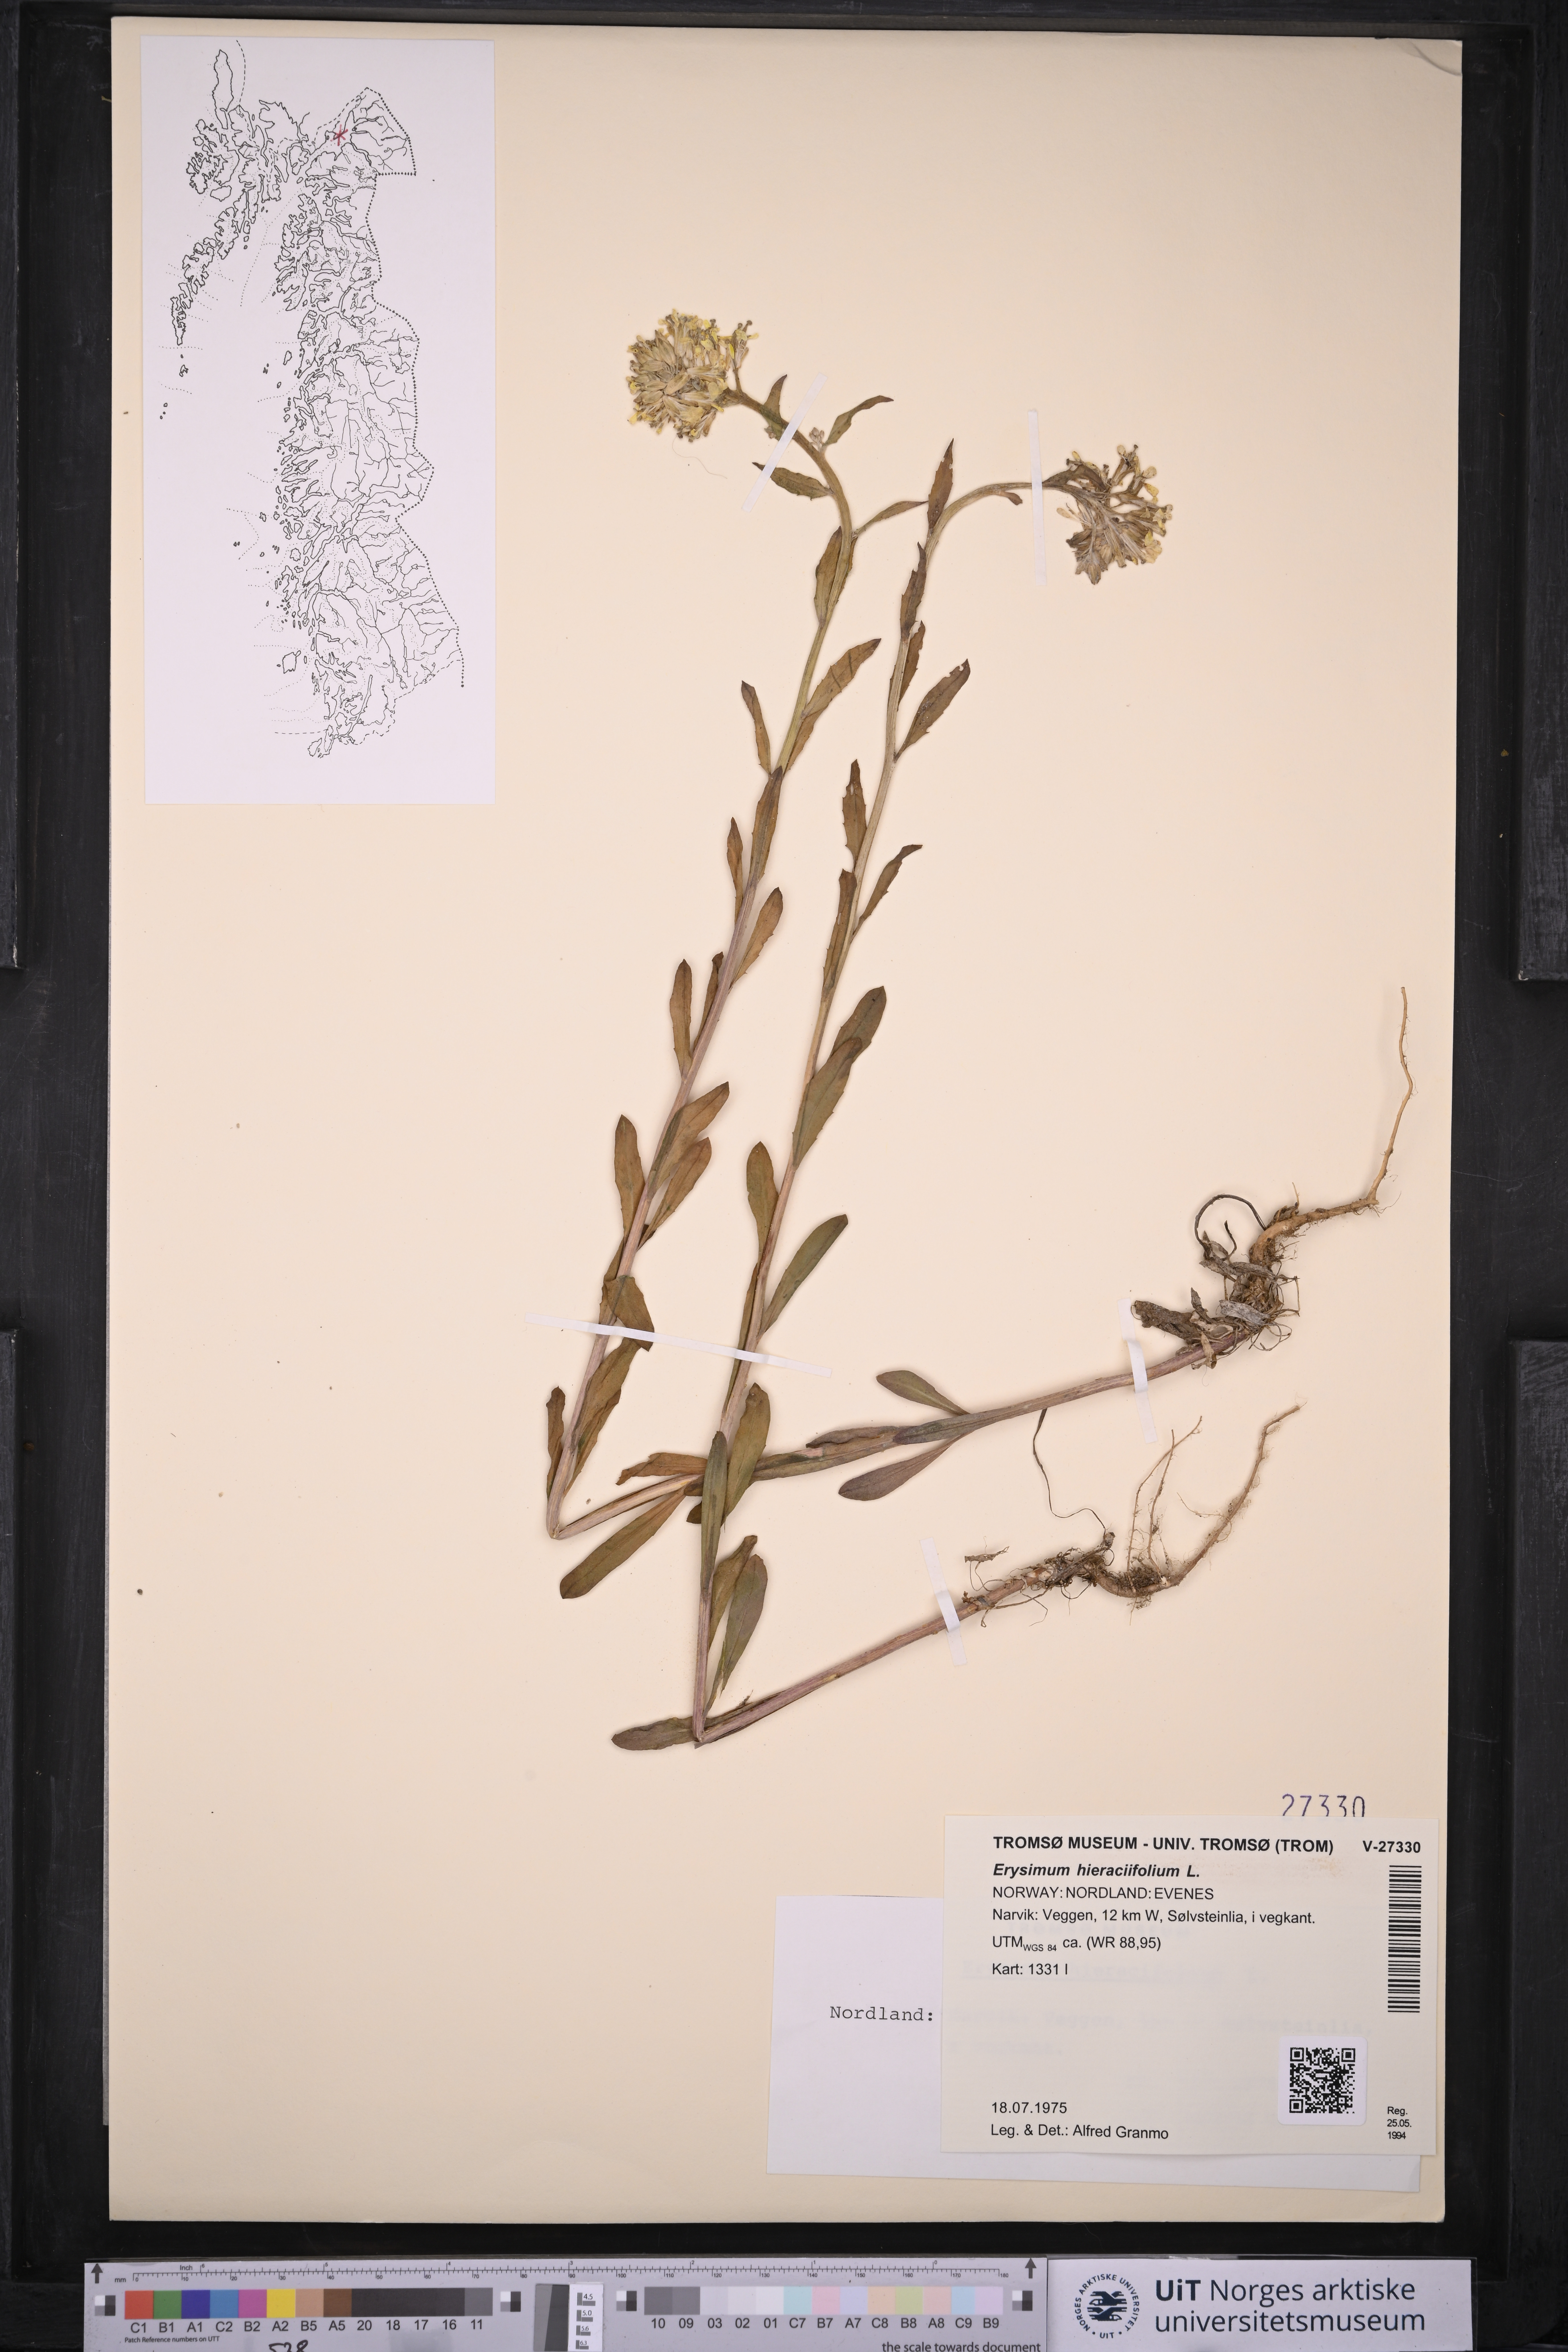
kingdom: Plantae
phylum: Tracheophyta
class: Magnoliopsida
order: Brassicales
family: Brassicaceae
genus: Erysimum
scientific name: Erysimum virgatum
